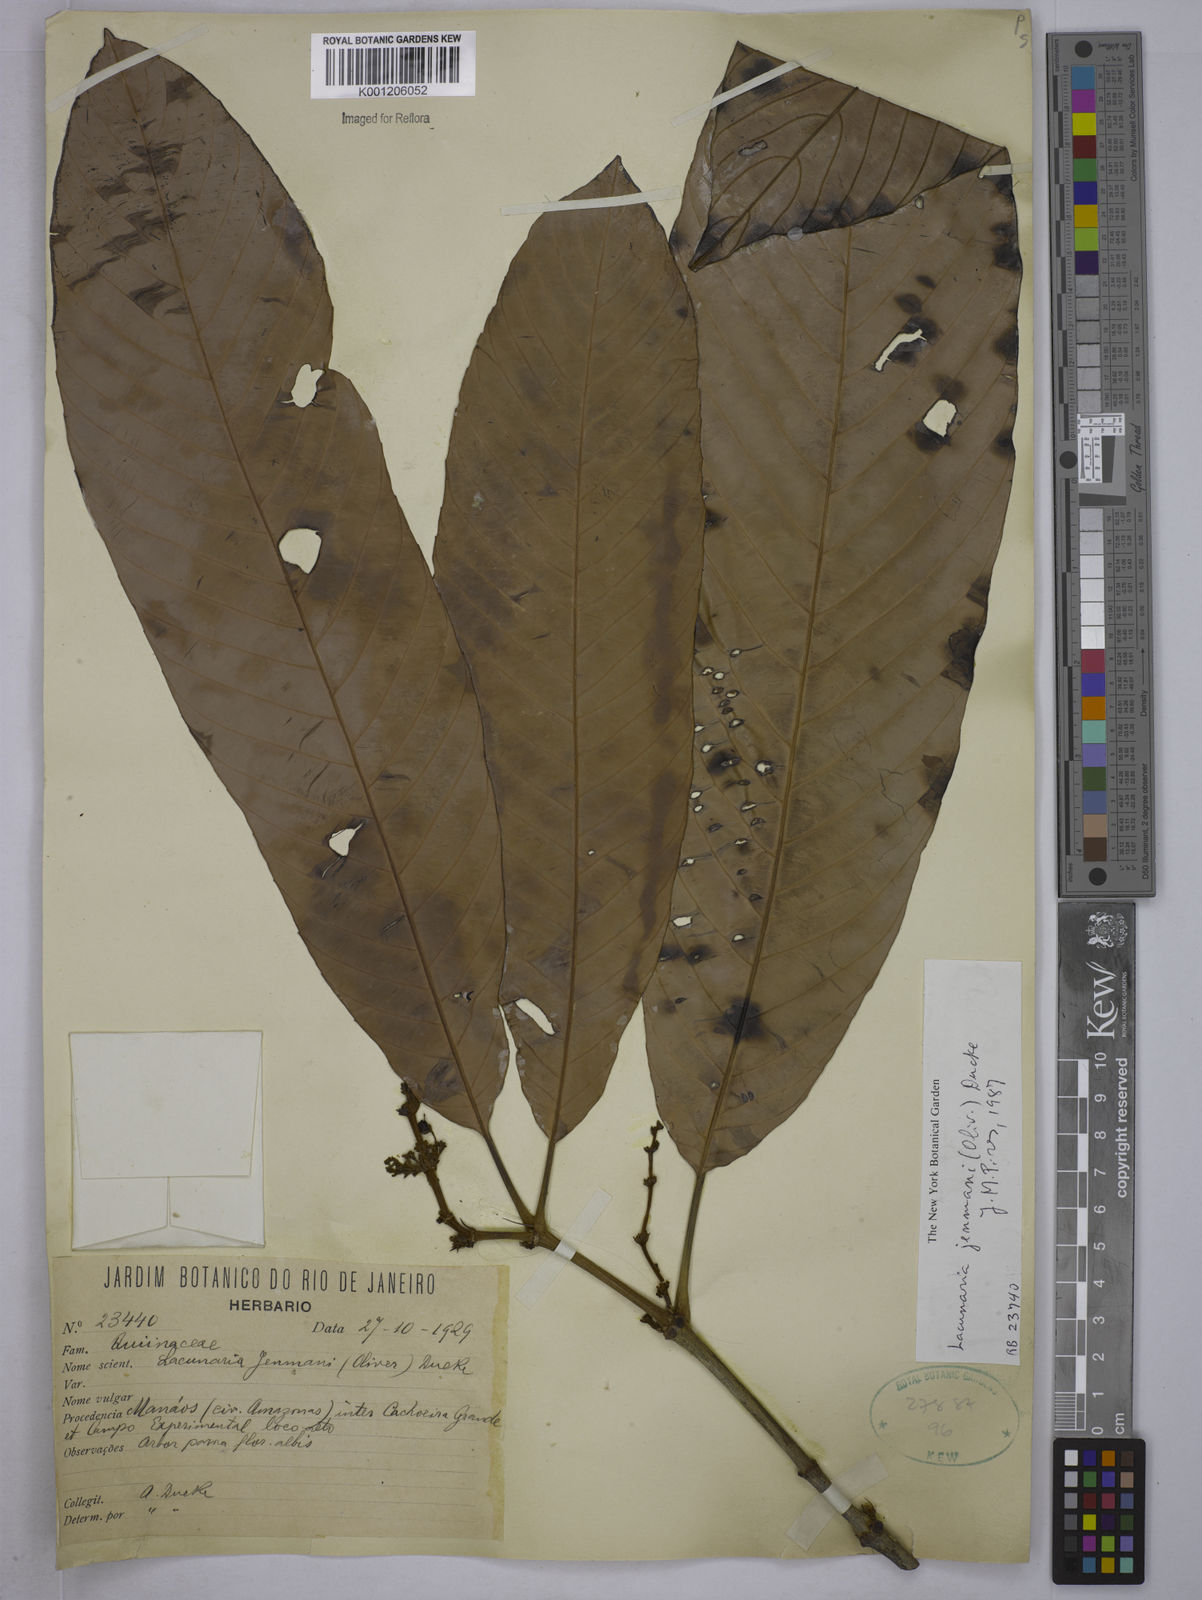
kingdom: Plantae
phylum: Tracheophyta
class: Magnoliopsida
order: Malpighiales
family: Quiinaceae
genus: Lacunaria
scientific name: Lacunaria jenmanii
